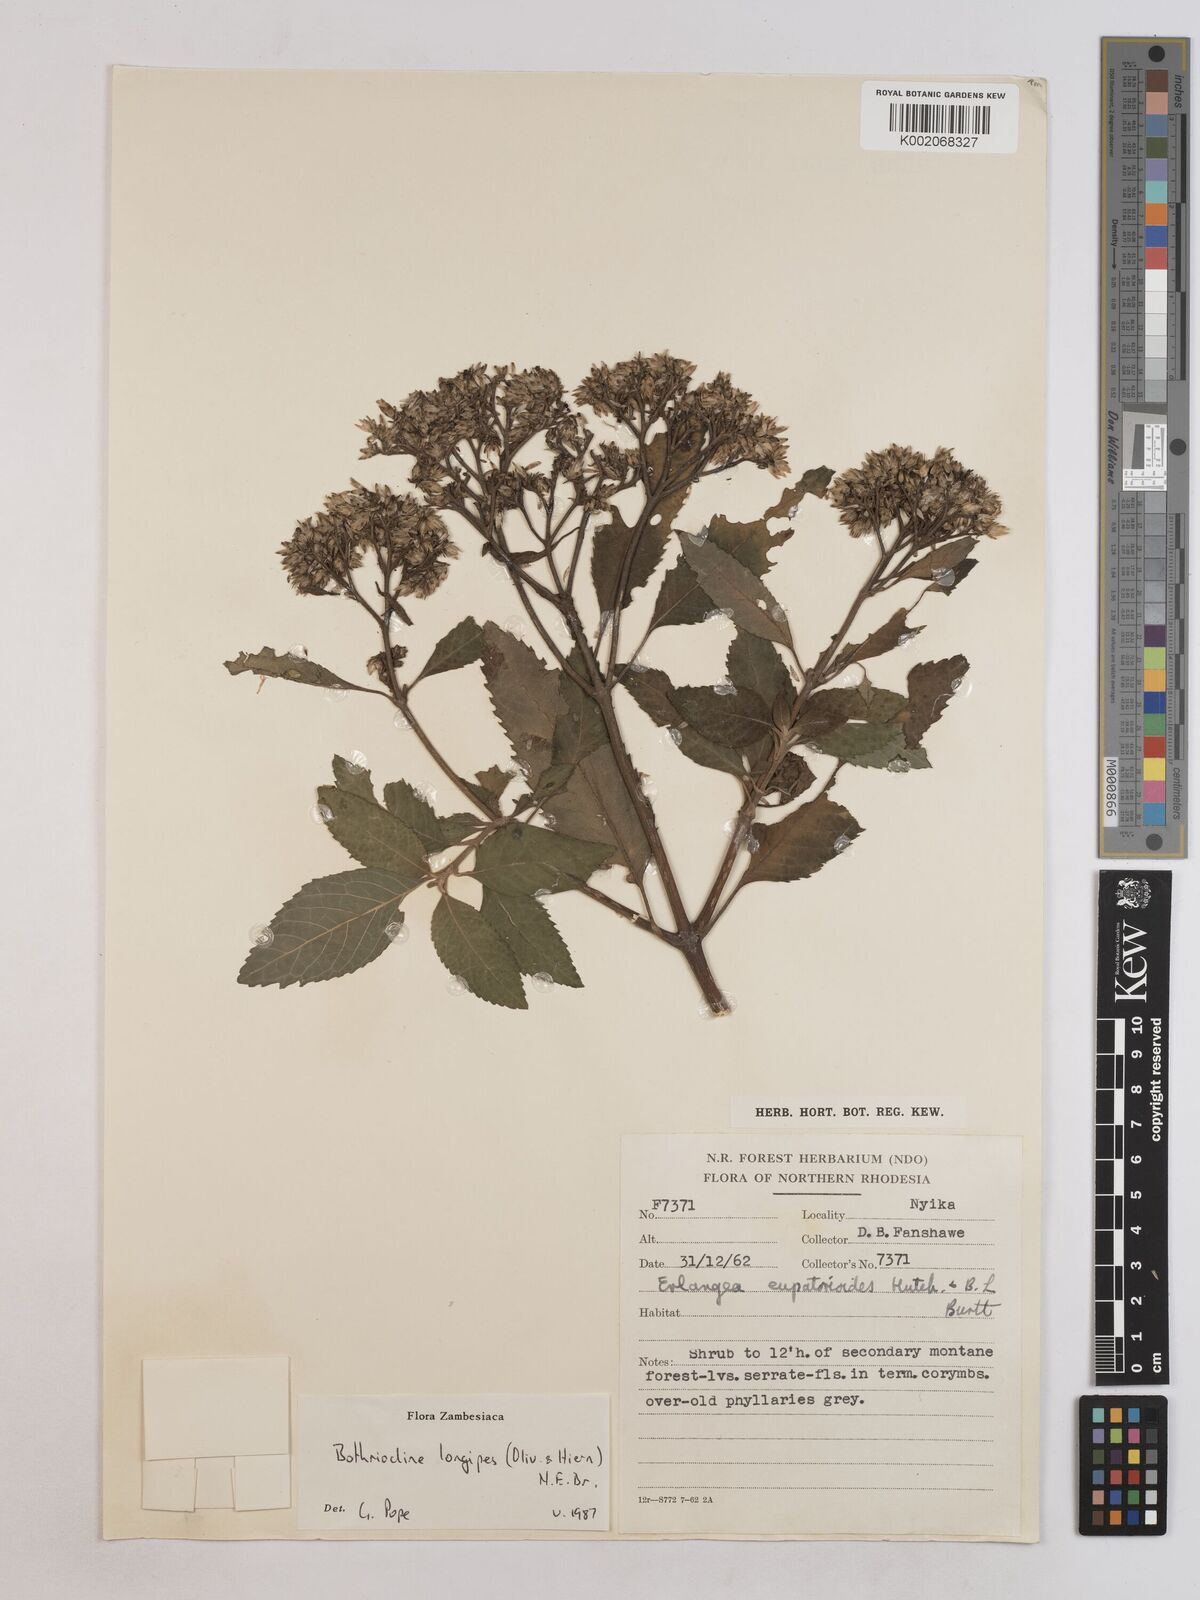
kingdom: Plantae
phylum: Tracheophyta
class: Magnoliopsida
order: Asterales
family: Asteraceae
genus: Bothriocline
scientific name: Bothriocline longipes
